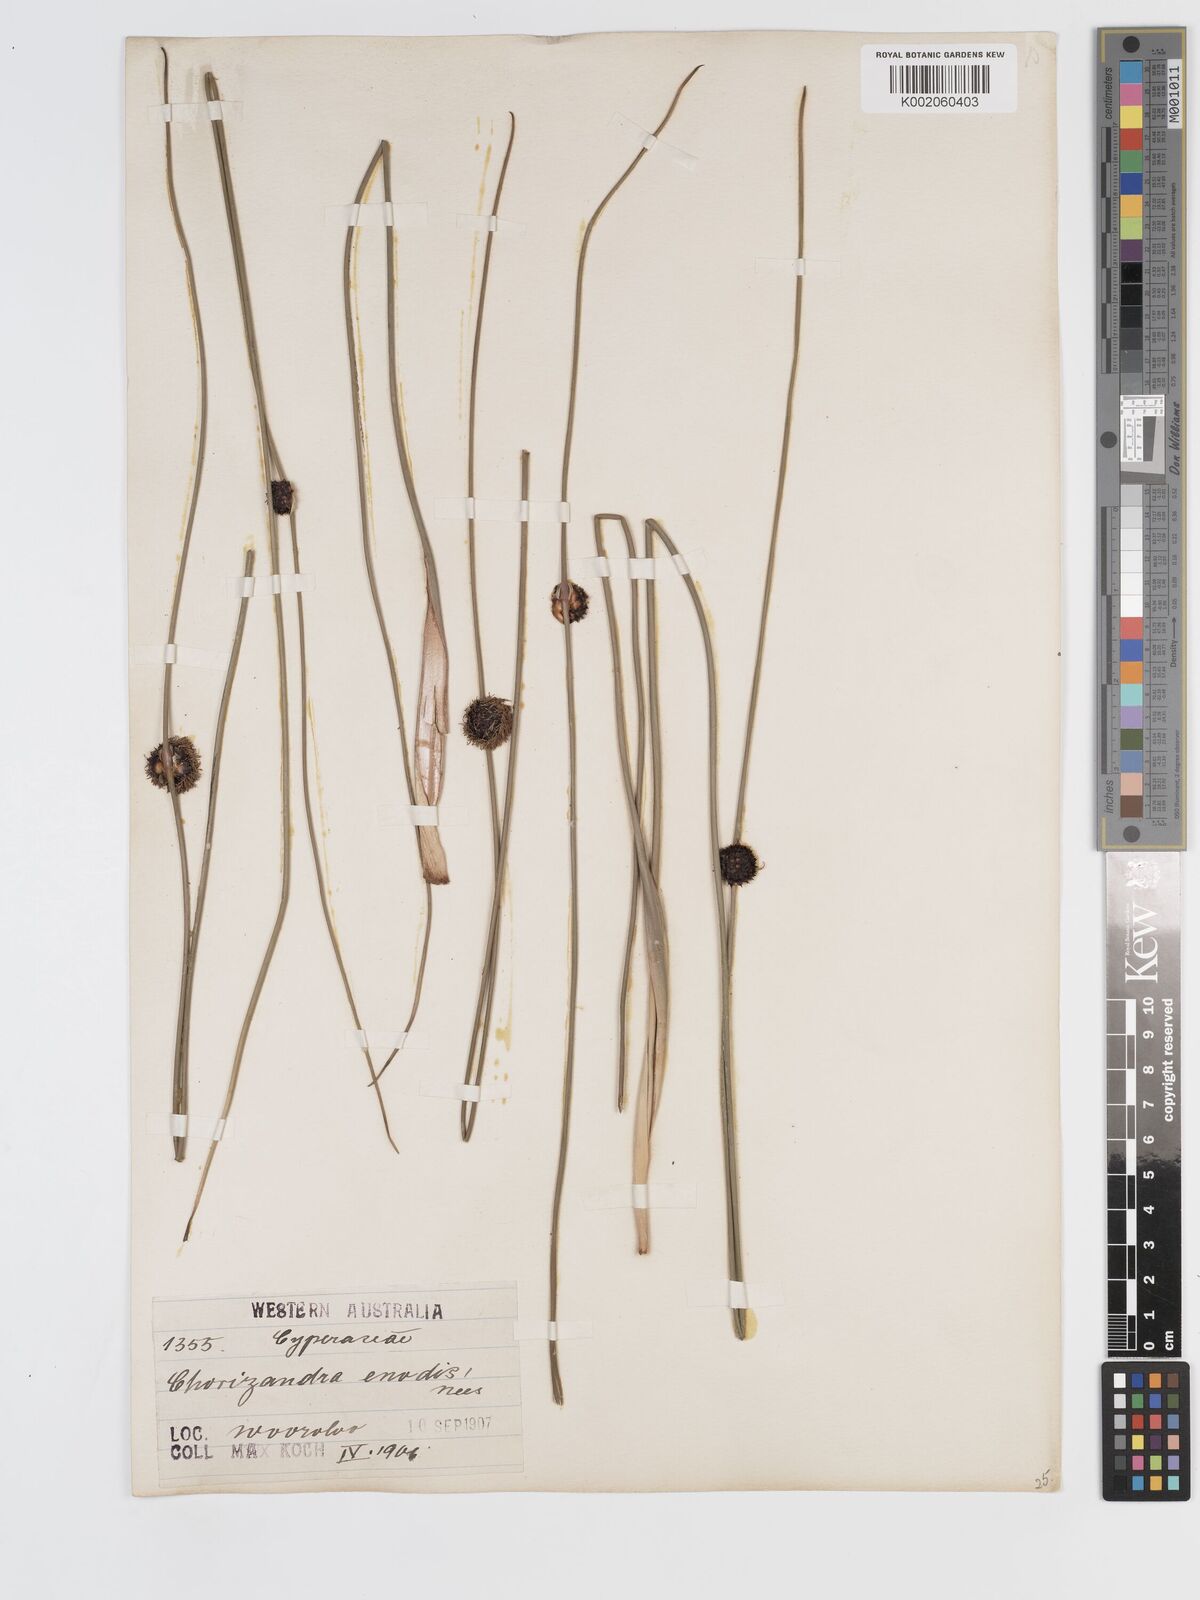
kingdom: Plantae
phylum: Tracheophyta
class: Liliopsida
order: Poales
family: Cyperaceae
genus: Chorizandra
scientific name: Chorizandra enodis
